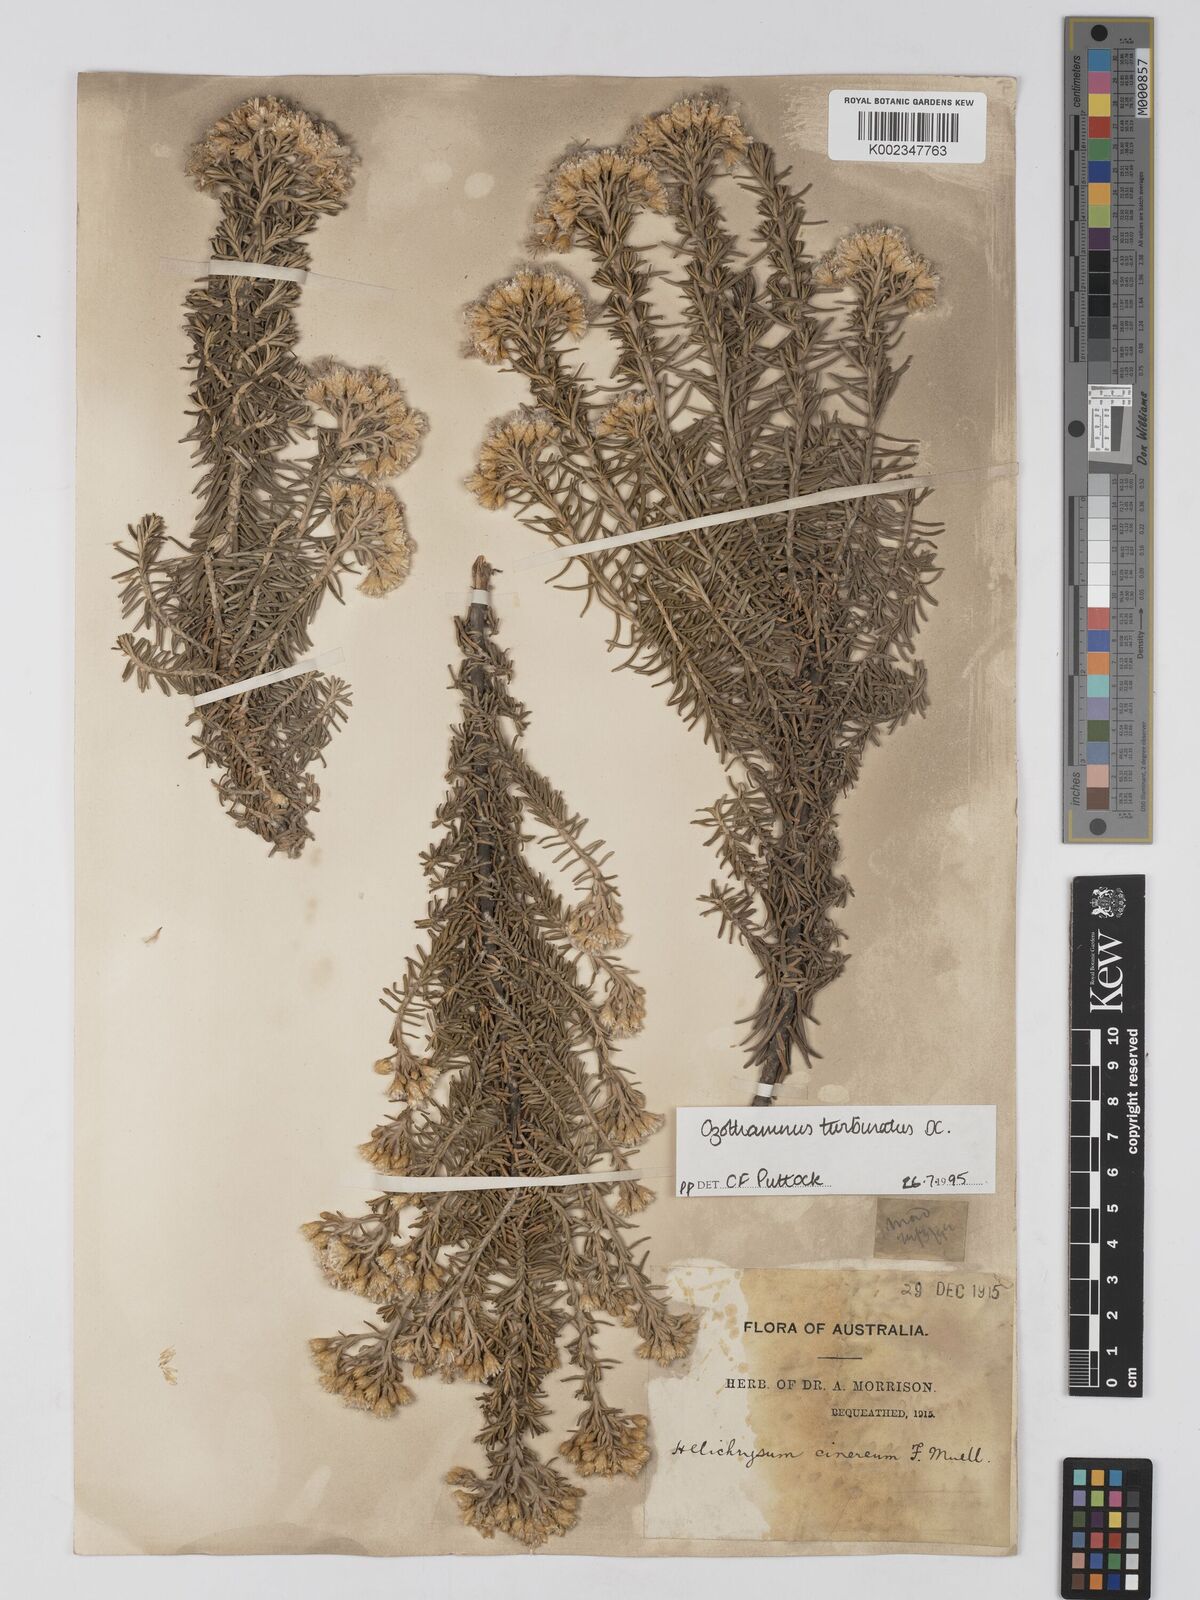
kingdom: Plantae
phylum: Tracheophyta
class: Magnoliopsida
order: Asterales
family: Asteraceae
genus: Ozothamnus
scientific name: Ozothamnus gunnii
